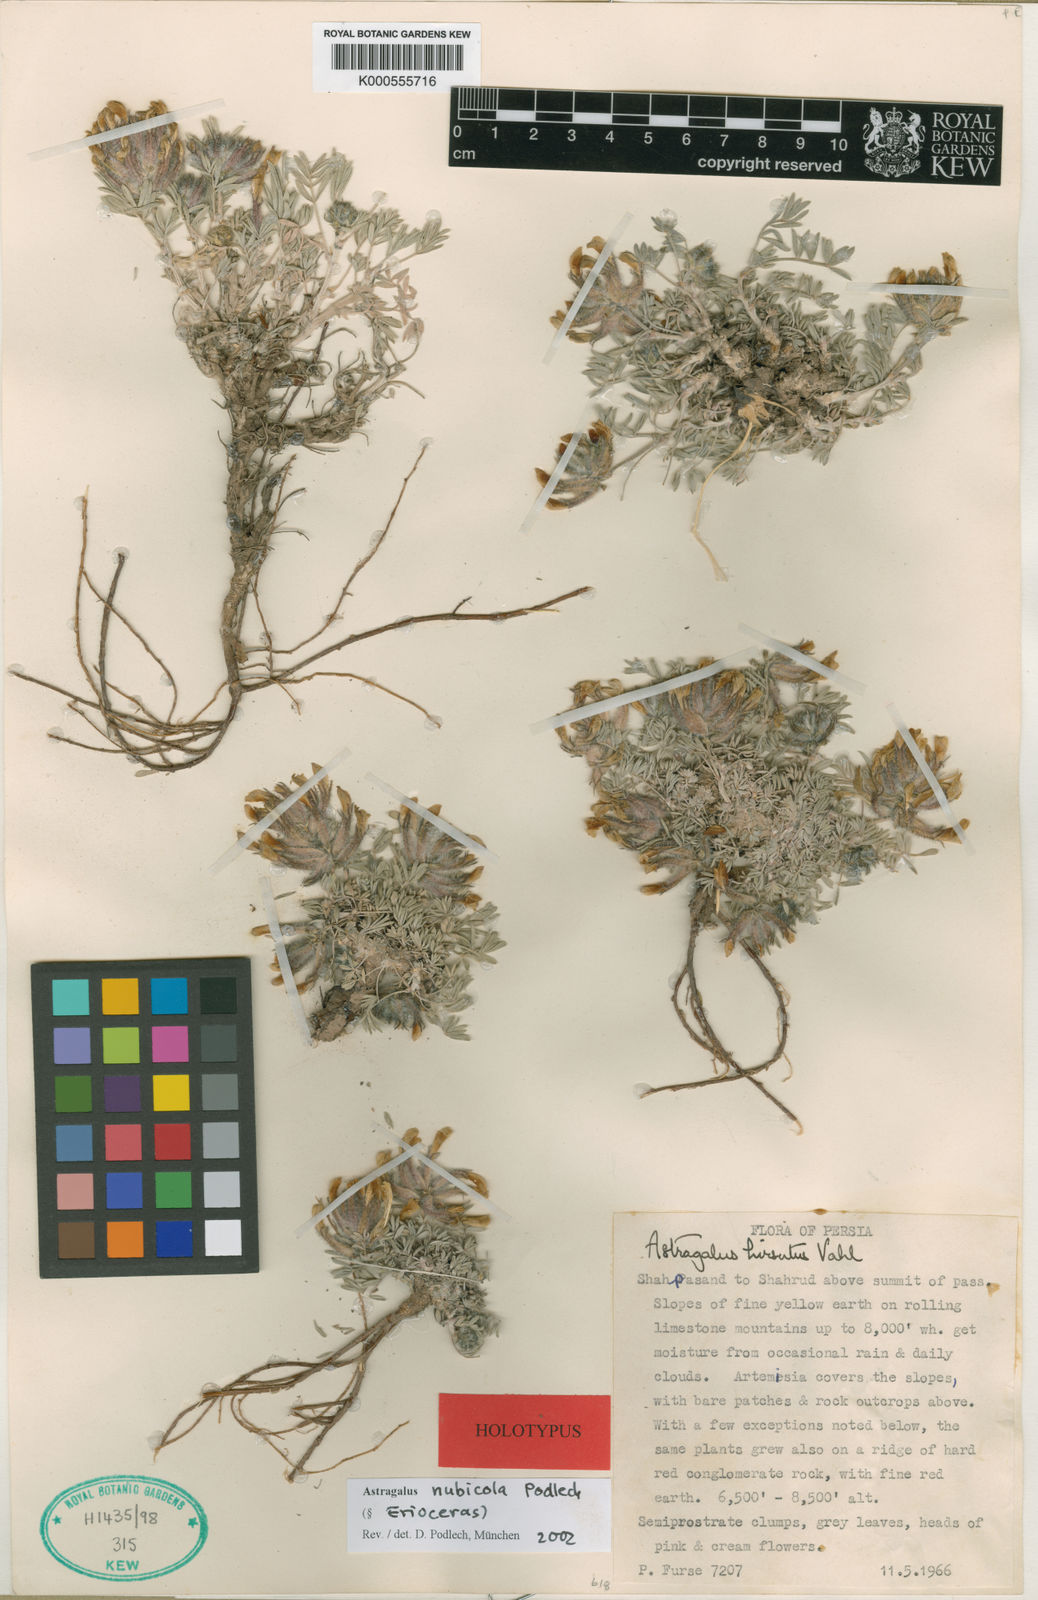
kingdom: Plantae
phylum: Tracheophyta
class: Magnoliopsida
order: Fabales
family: Fabaceae
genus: Astragalus
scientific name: Astragalus nubicola
